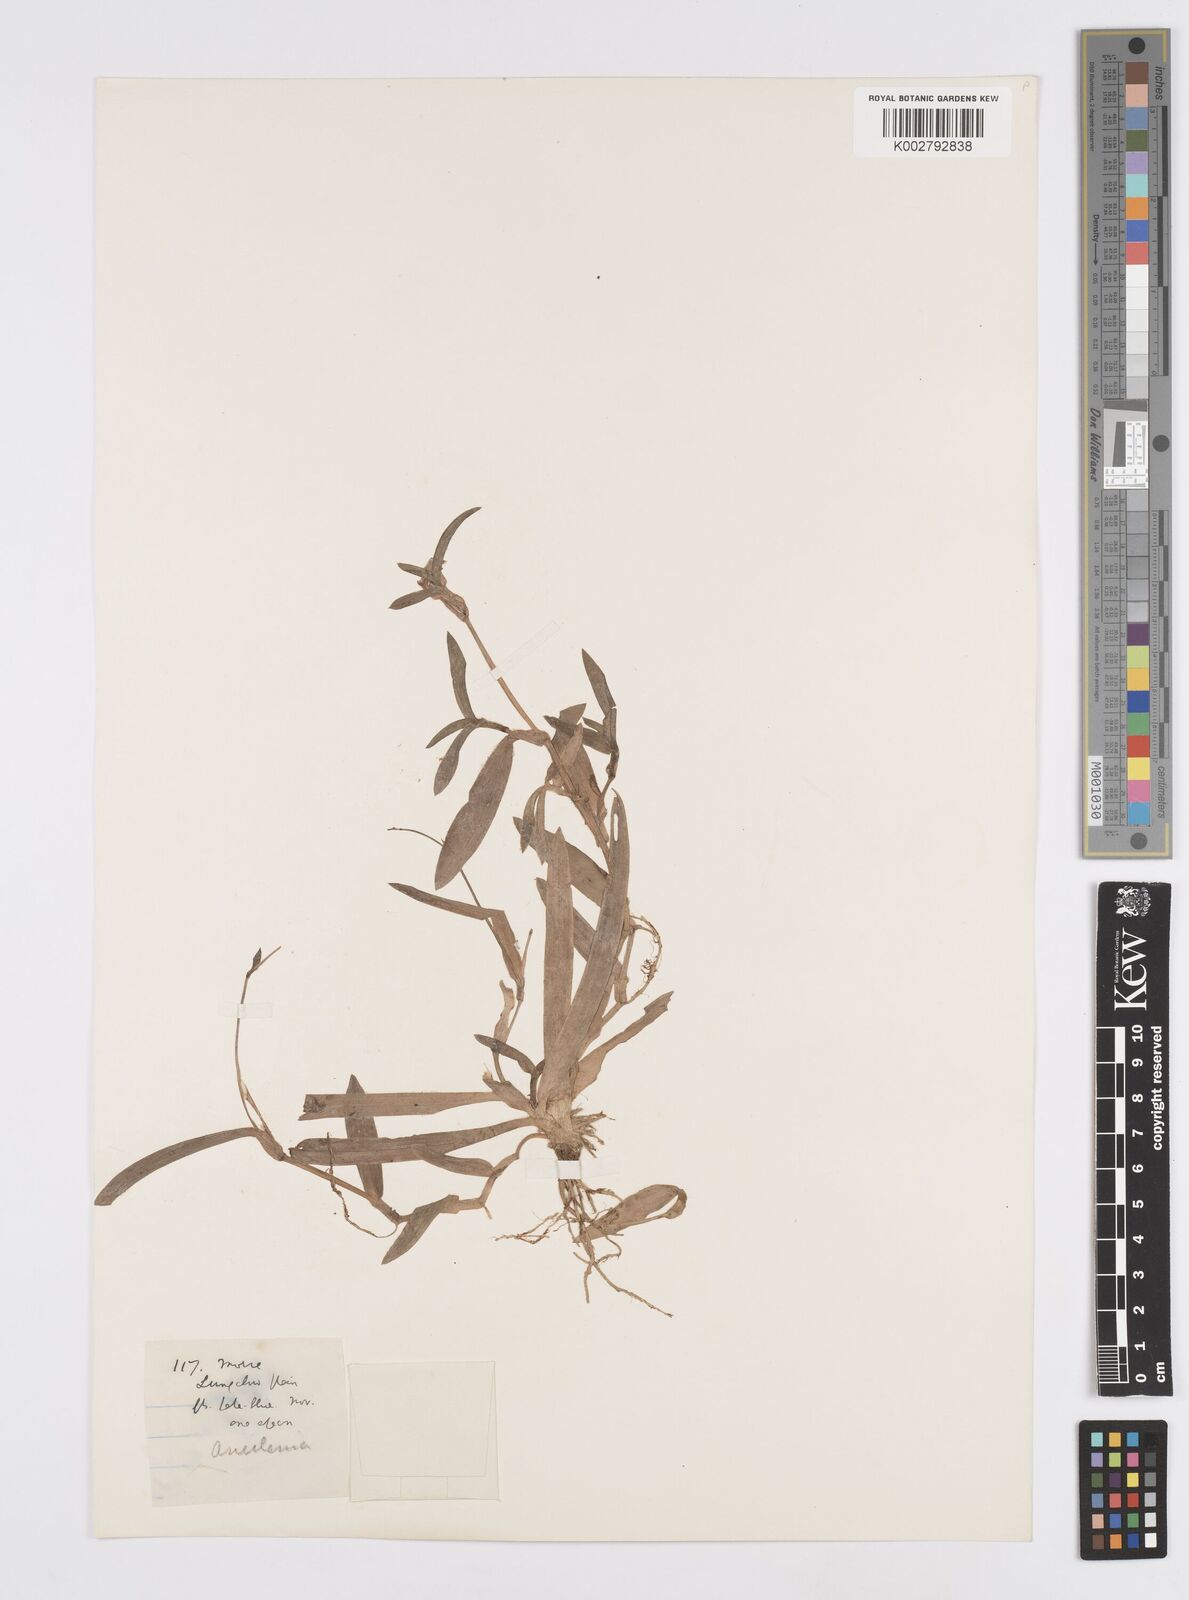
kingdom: Plantae
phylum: Tracheophyta
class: Liliopsida
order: Commelinales
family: Commelinaceae
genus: Murdannia
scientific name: Murdannia loriformis
